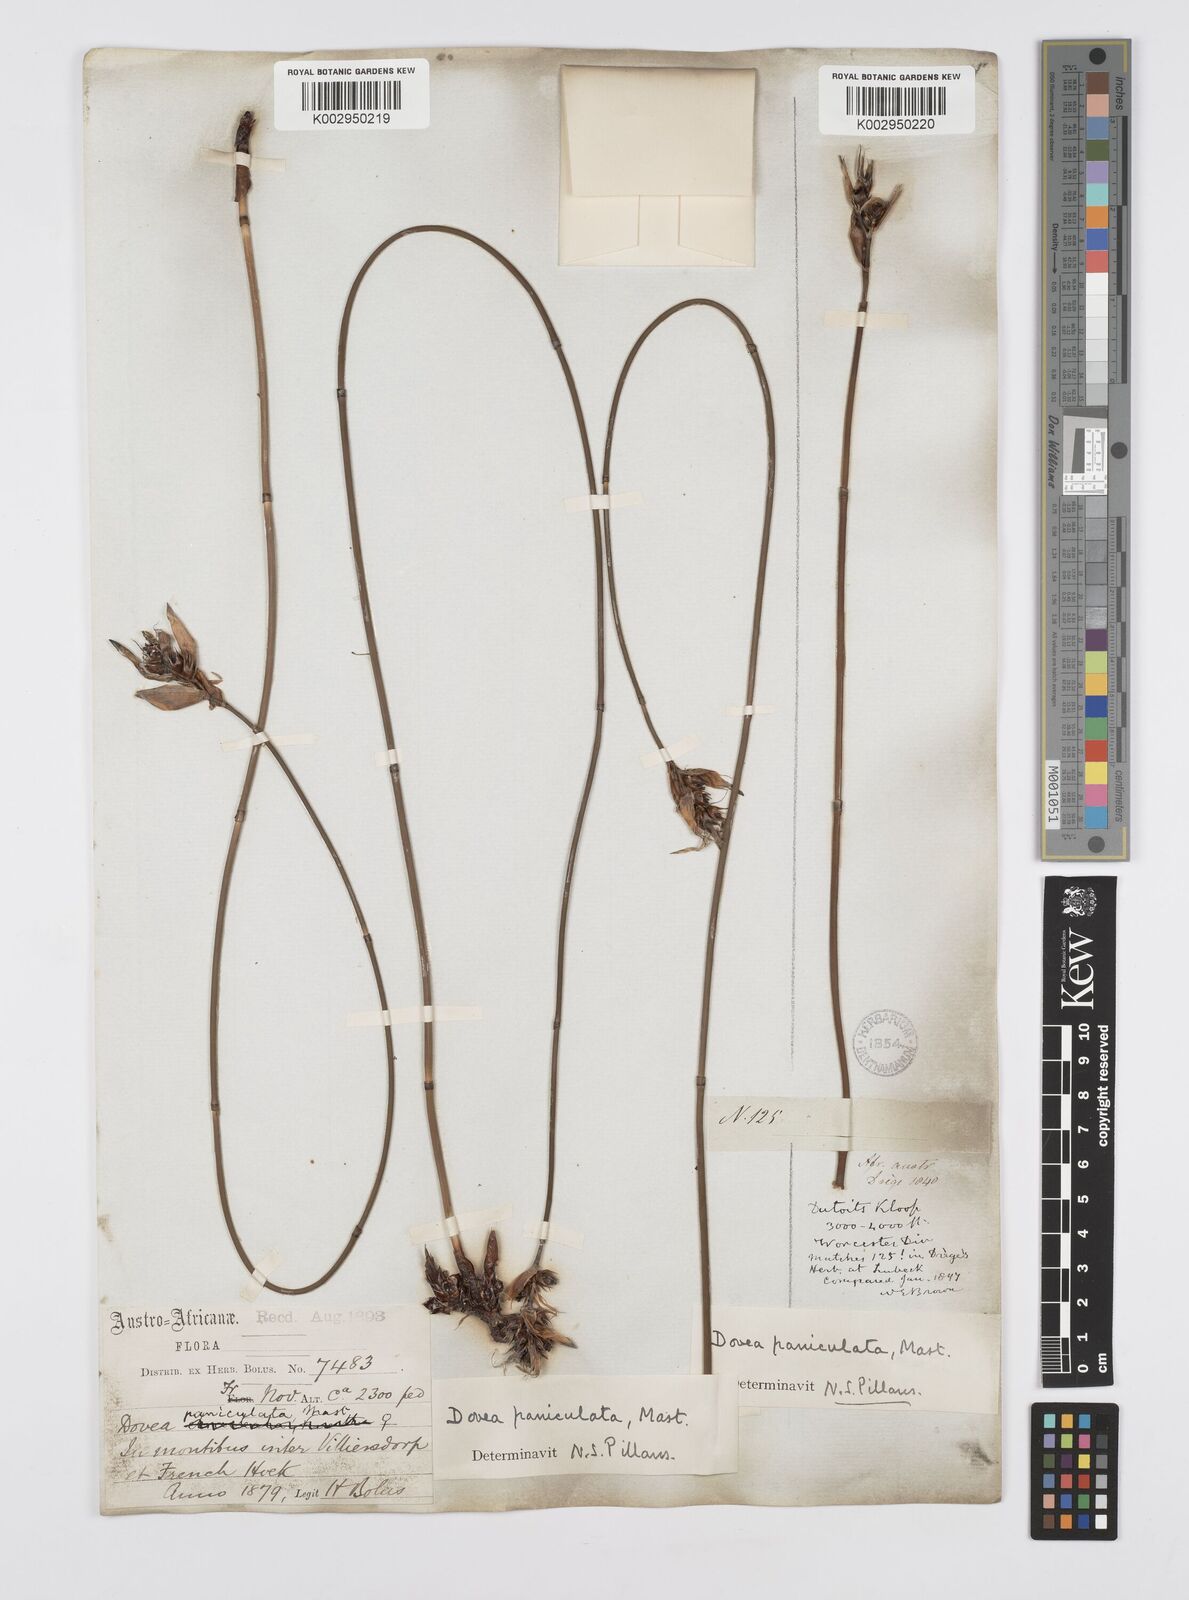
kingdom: Plantae
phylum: Tracheophyta
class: Liliopsida
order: Poales
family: Restionaceae
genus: Askidiosperma
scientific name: Askidiosperma paniculatum
